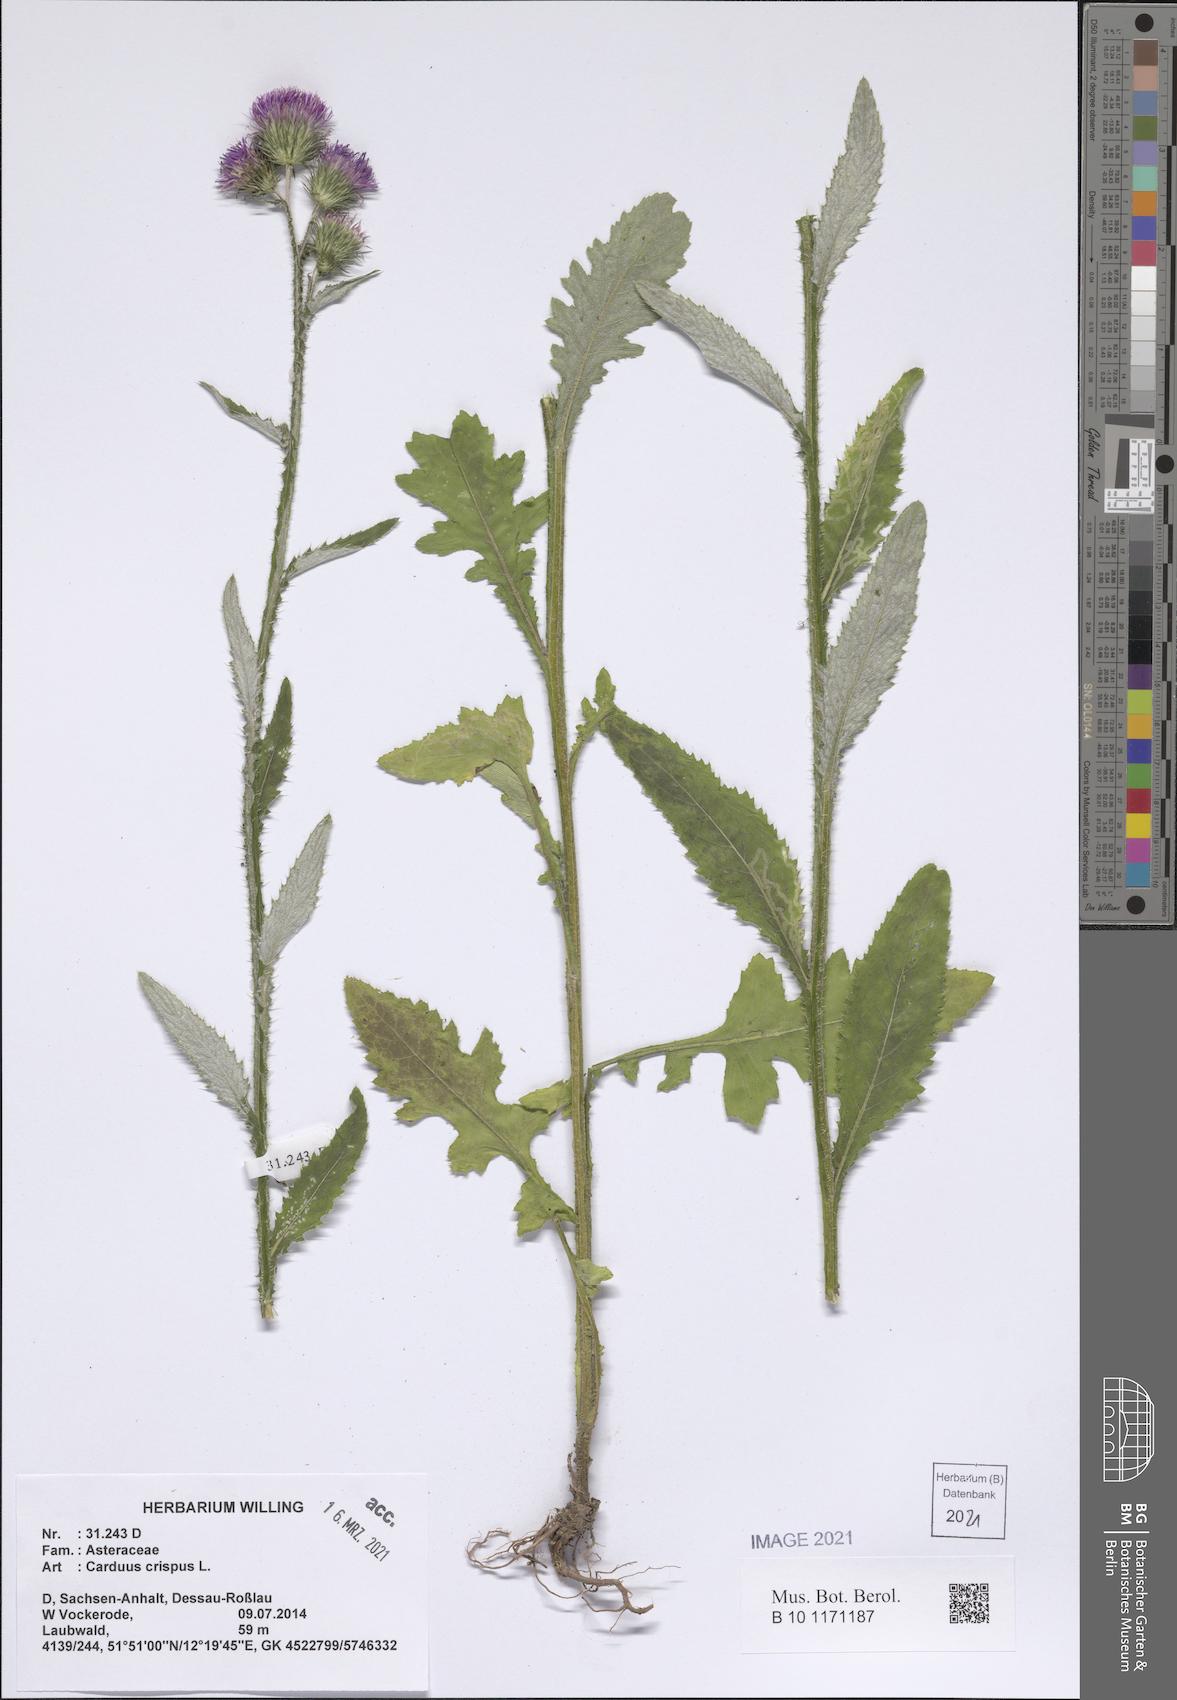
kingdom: Plantae
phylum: Tracheophyta
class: Magnoliopsida
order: Asterales
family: Asteraceae
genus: Carduus
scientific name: Carduus crispus
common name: Welted thistle
